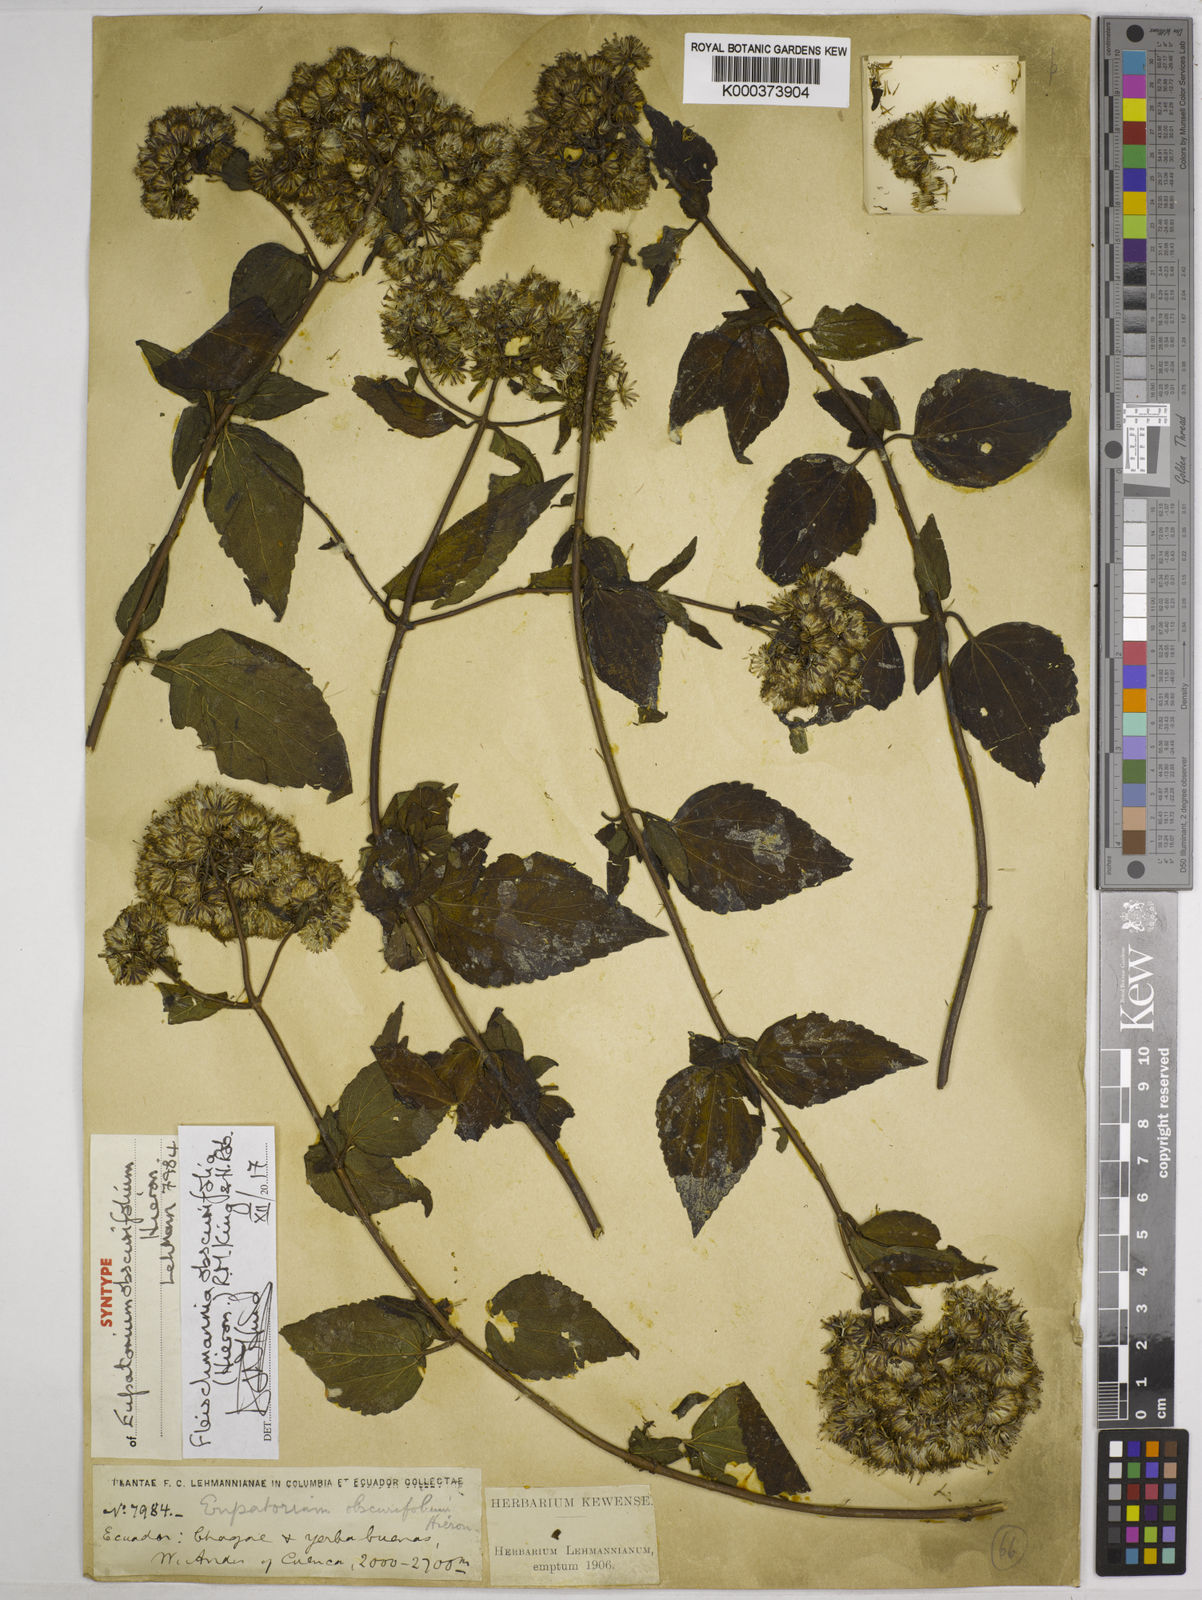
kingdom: Plantae
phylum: Tracheophyta
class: Magnoliopsida
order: Asterales
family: Asteraceae
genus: Fleischmannia
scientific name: Fleischmannia obscurifolia
